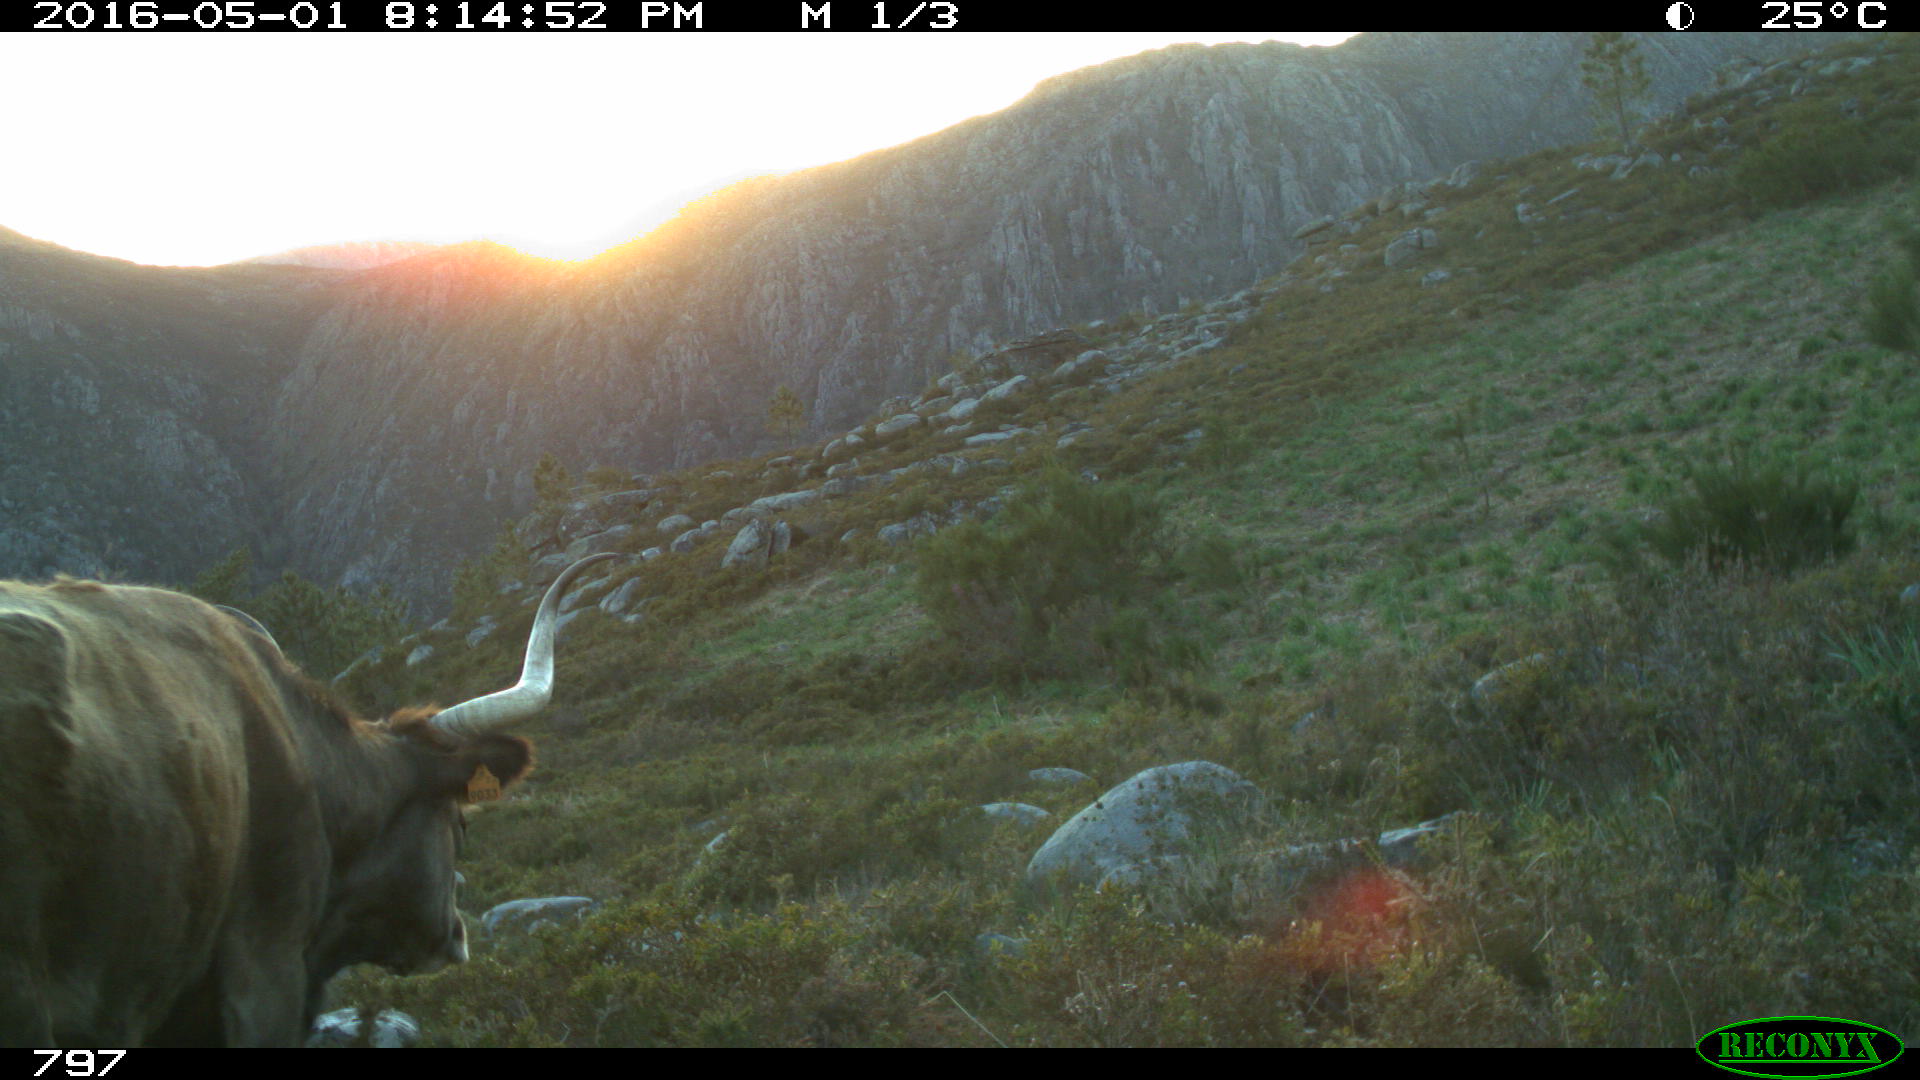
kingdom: Animalia
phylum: Chordata
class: Mammalia
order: Artiodactyla
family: Bovidae
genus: Bos
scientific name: Bos taurus
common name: Domesticated cattle
